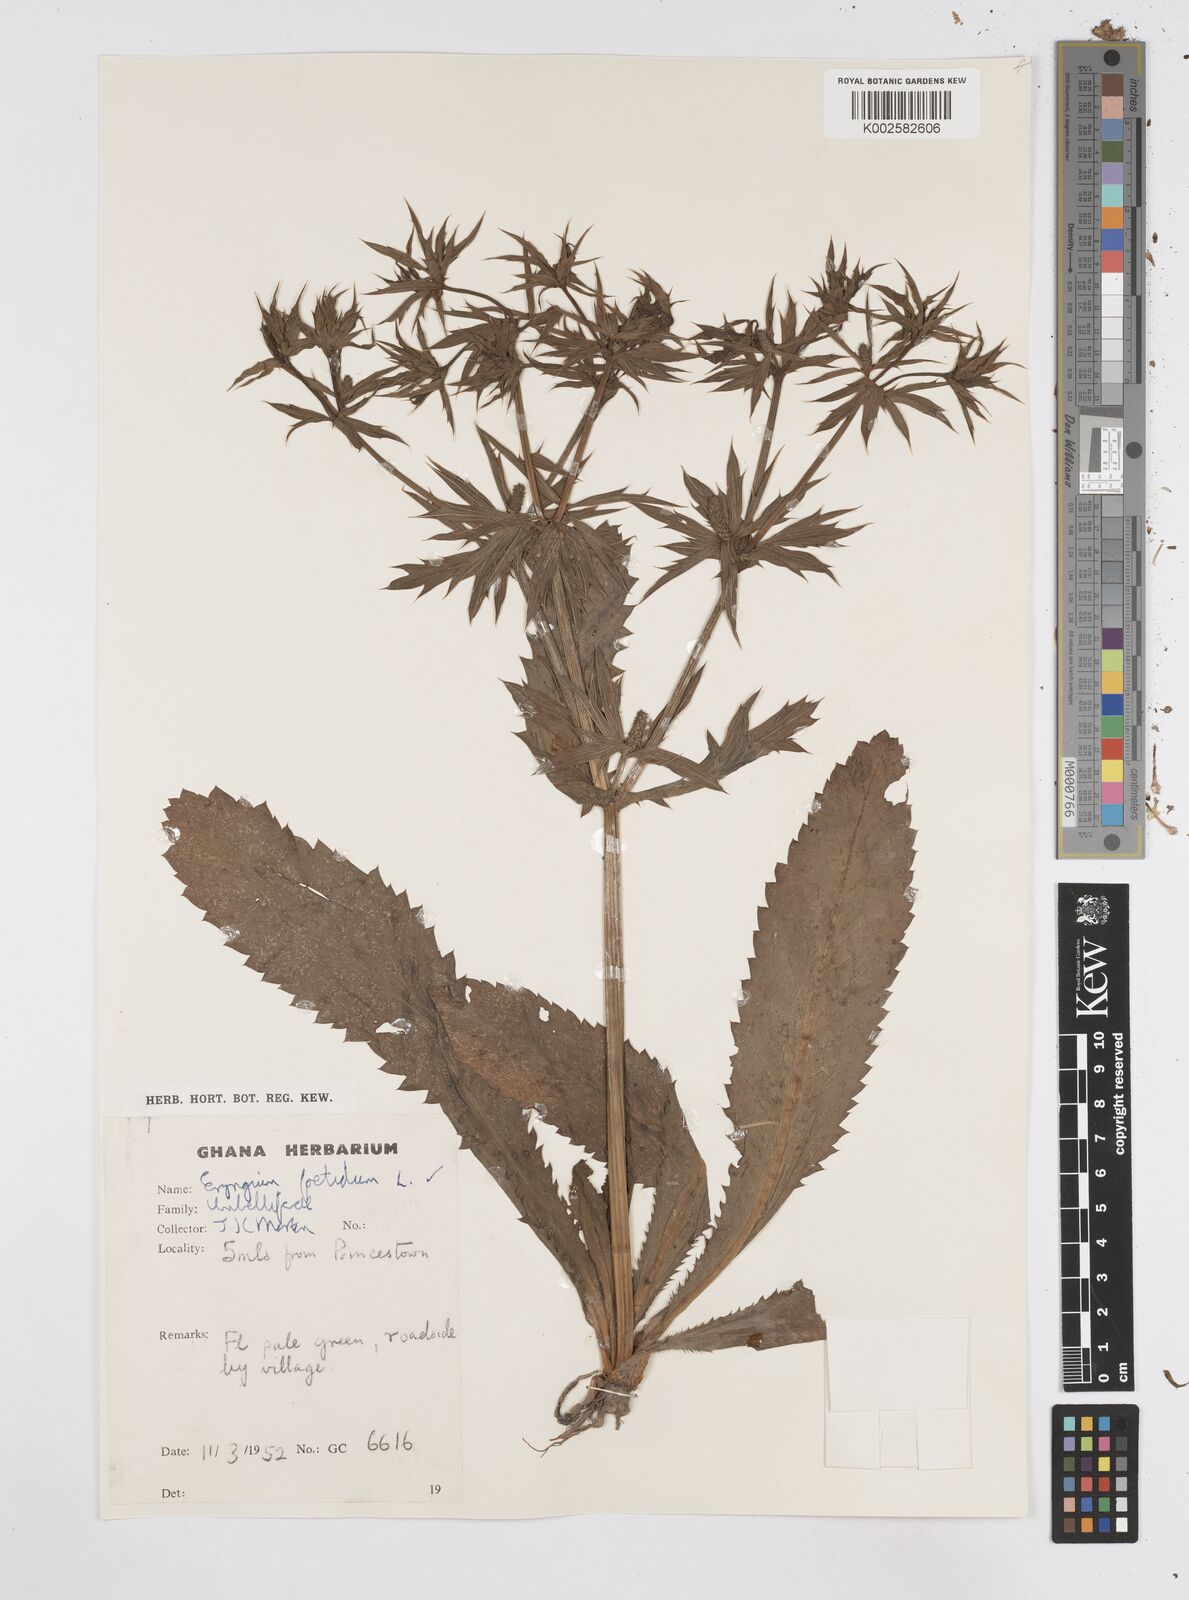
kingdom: Plantae
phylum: Tracheophyta
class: Magnoliopsida
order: Apiales
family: Apiaceae
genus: Eryngium
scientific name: Eryngium foetidum
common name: Fitweed
